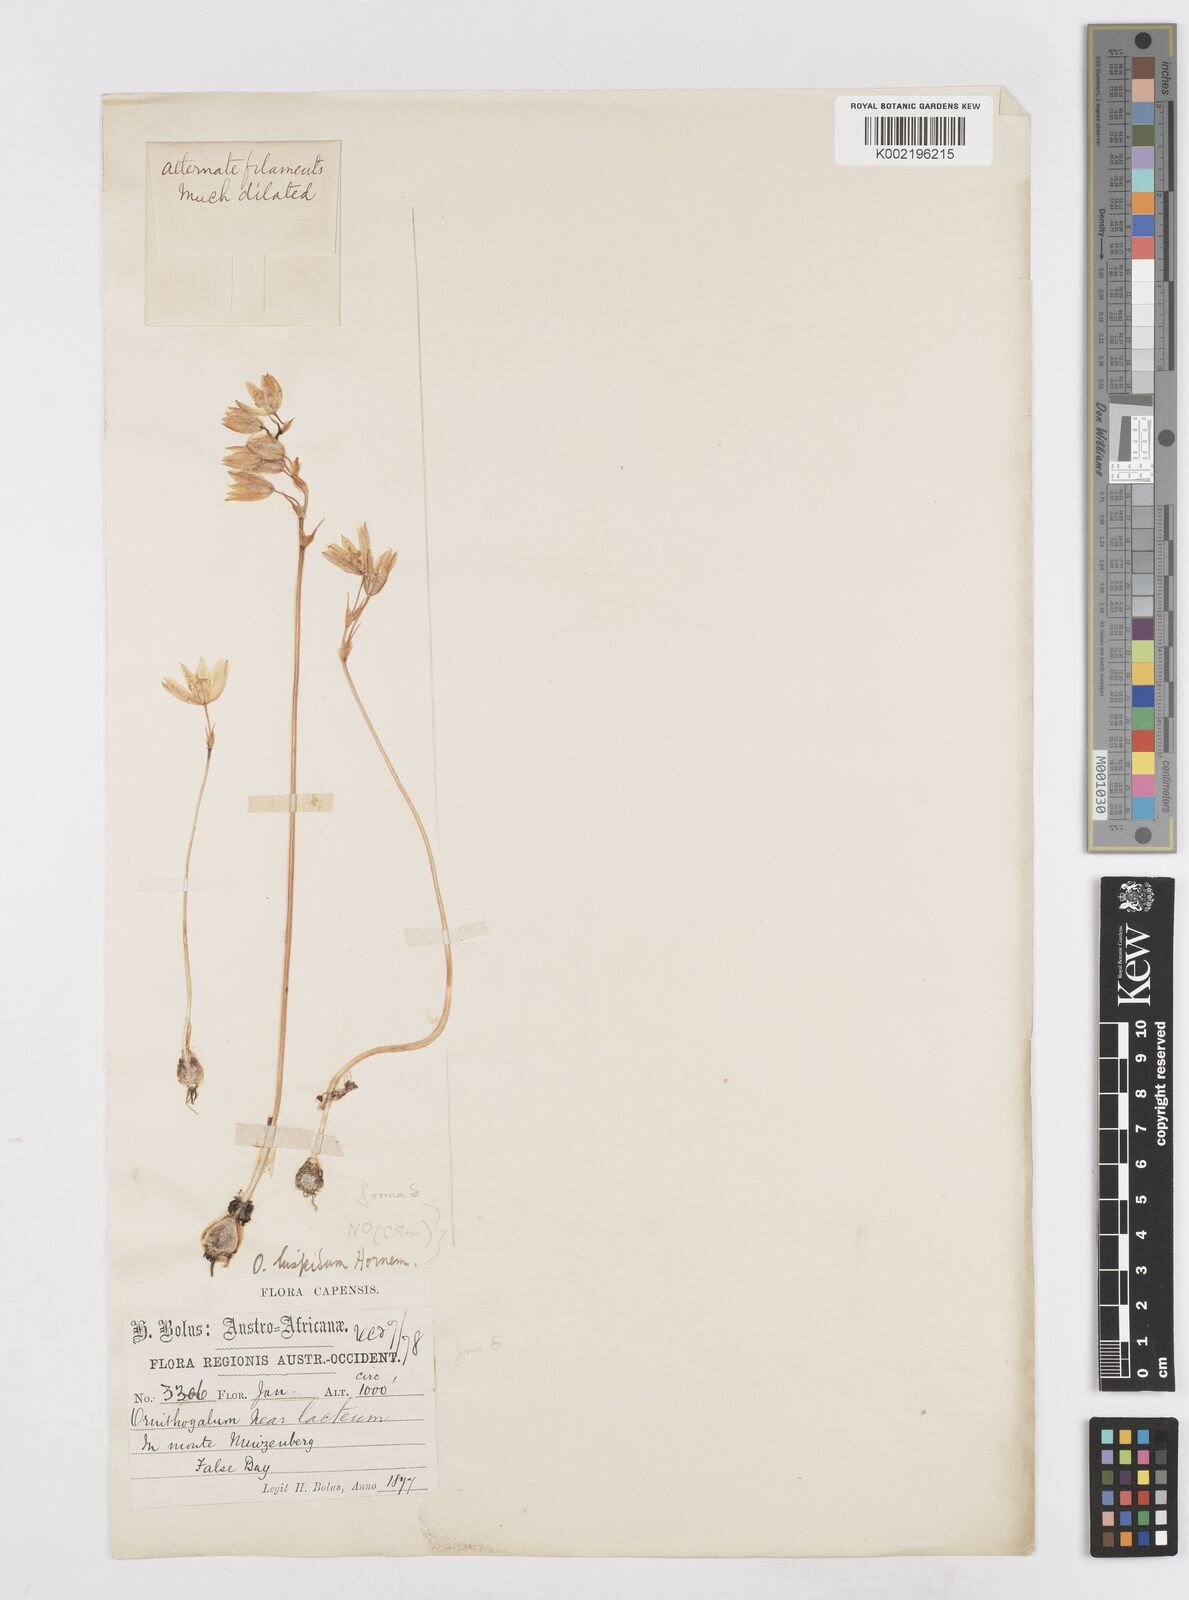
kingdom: Plantae
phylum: Tracheophyta
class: Liliopsida
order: Asparagales
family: Asparagaceae
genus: Ornithogalum
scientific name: Ornithogalum hispidum
